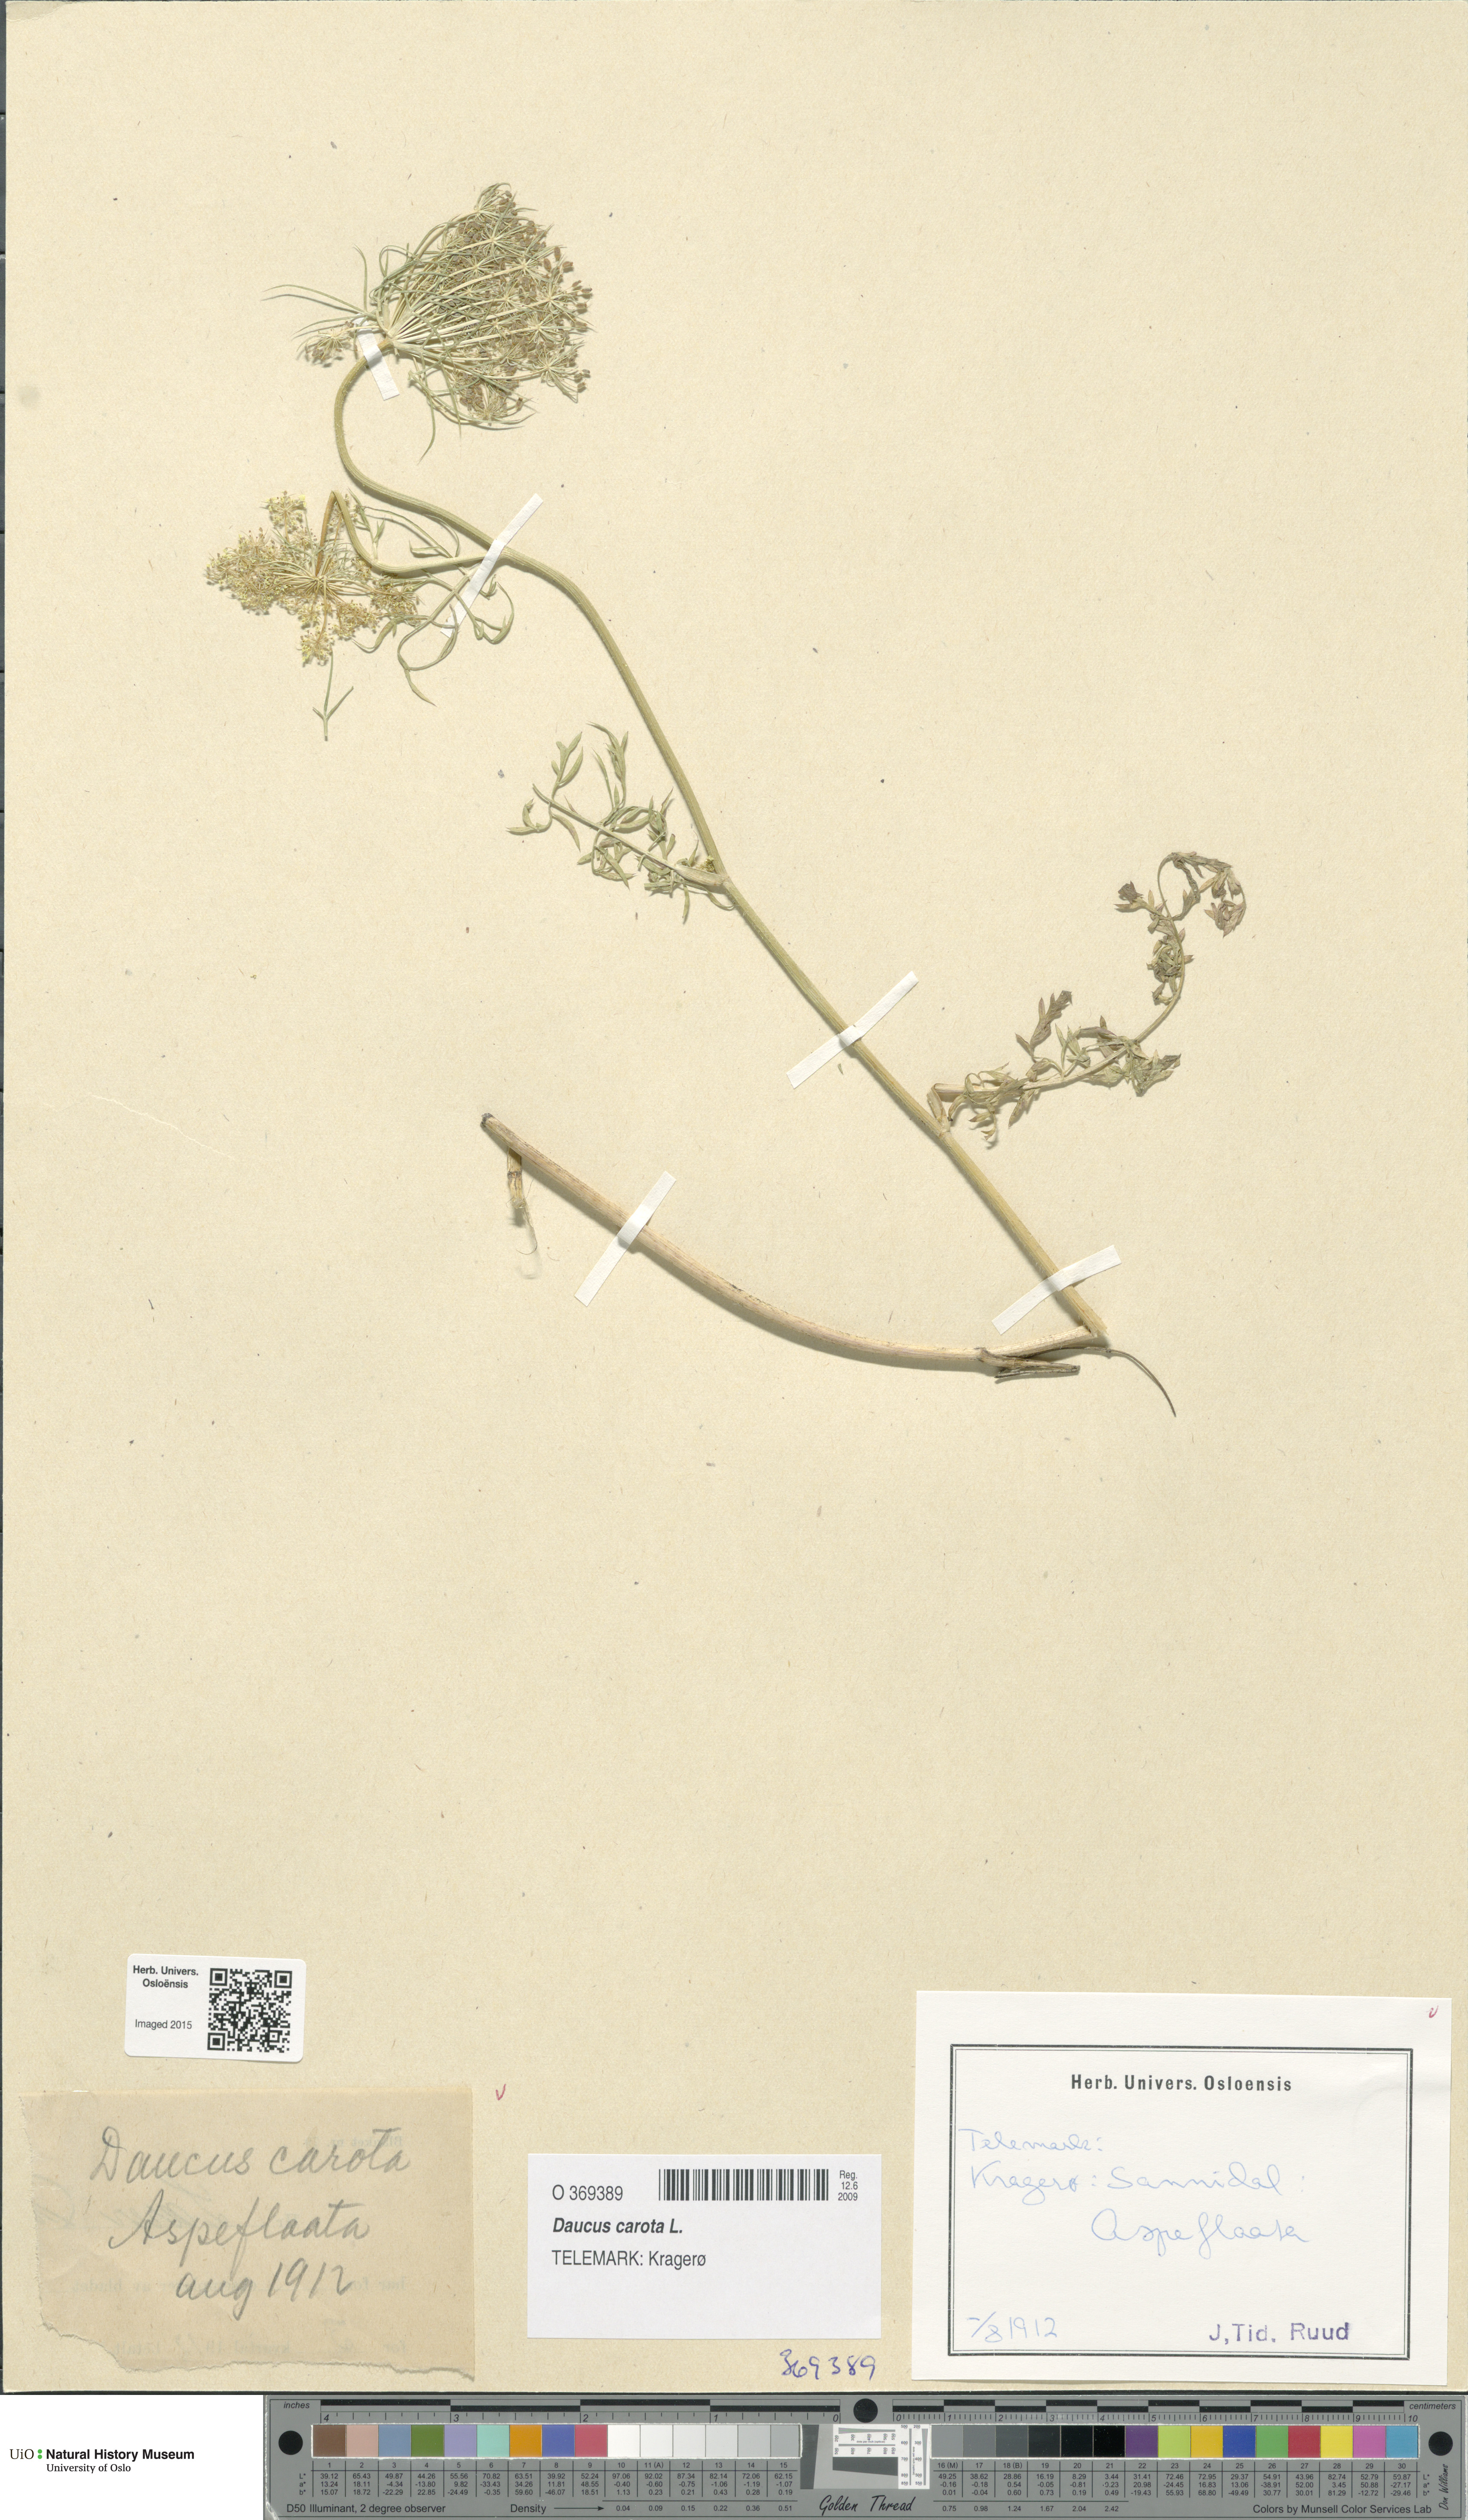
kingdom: Plantae
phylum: Tracheophyta
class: Magnoliopsida
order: Apiales
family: Apiaceae
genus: Daucus
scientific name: Daucus carota
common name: Wild carrot
